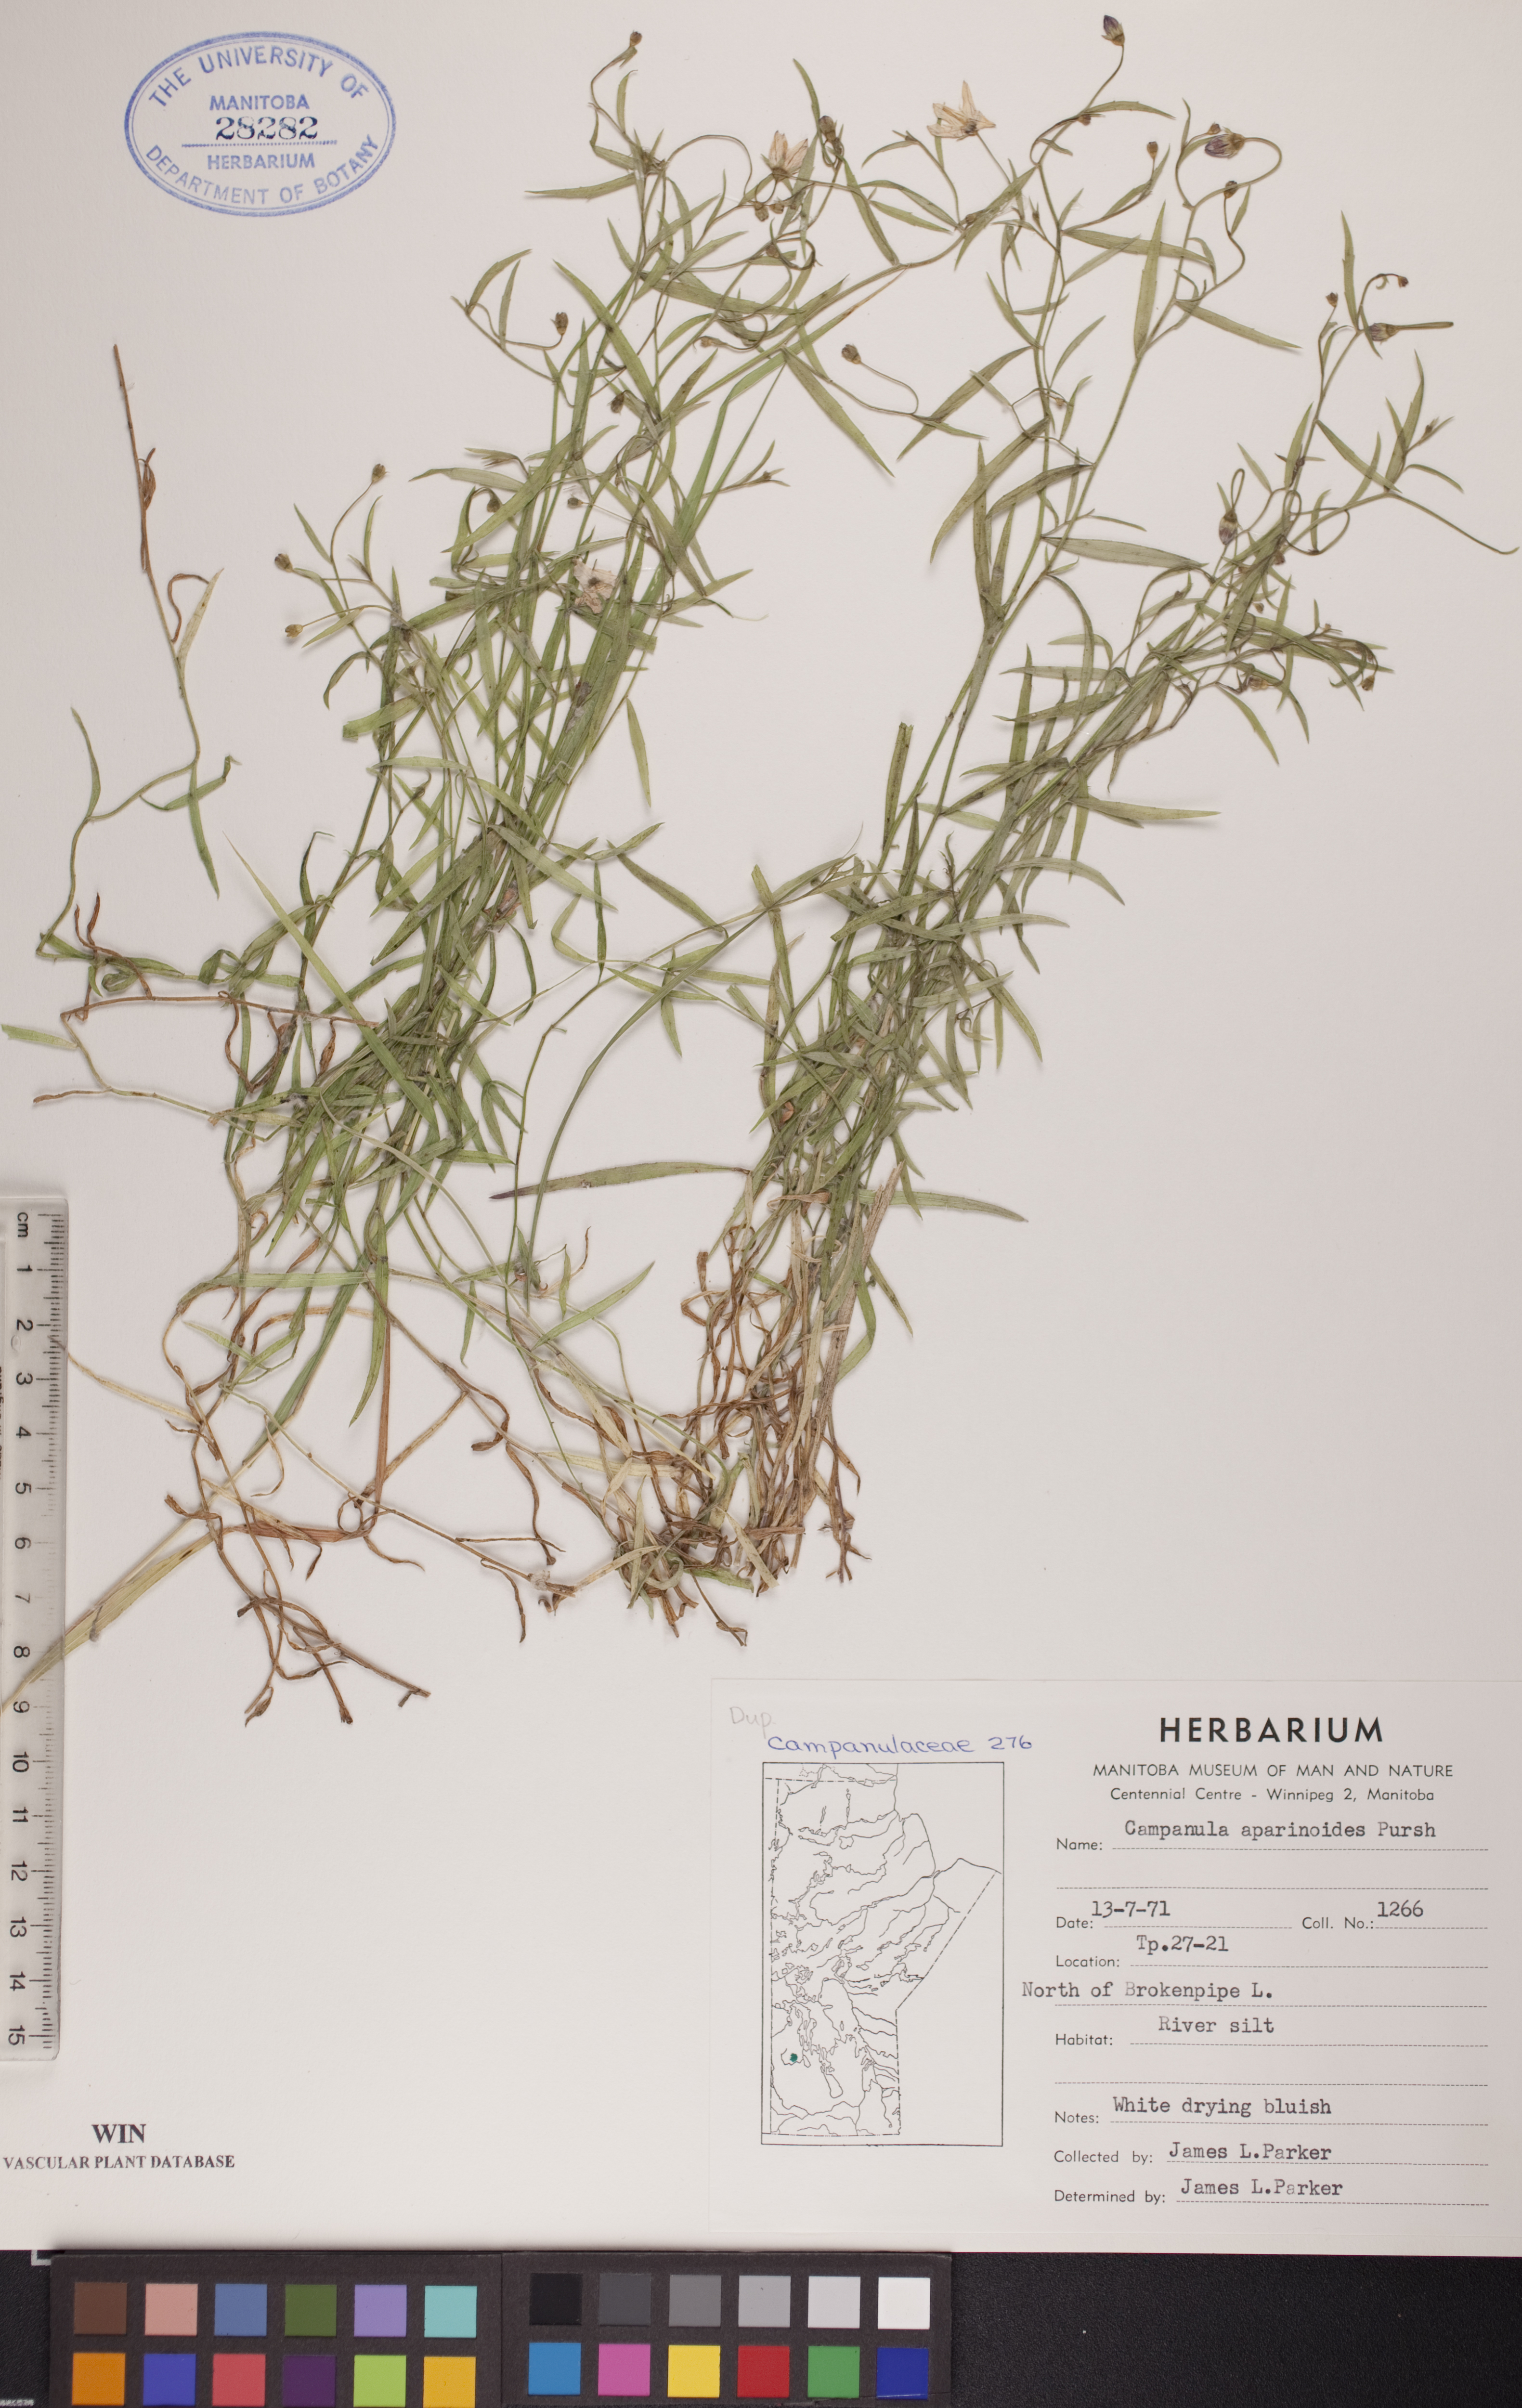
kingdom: Plantae
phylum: Tracheophyta
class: Magnoliopsida
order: Asterales
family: Campanulaceae
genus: Palustricodon
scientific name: Palustricodon aparinoides
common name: Bedstraw bellflower
